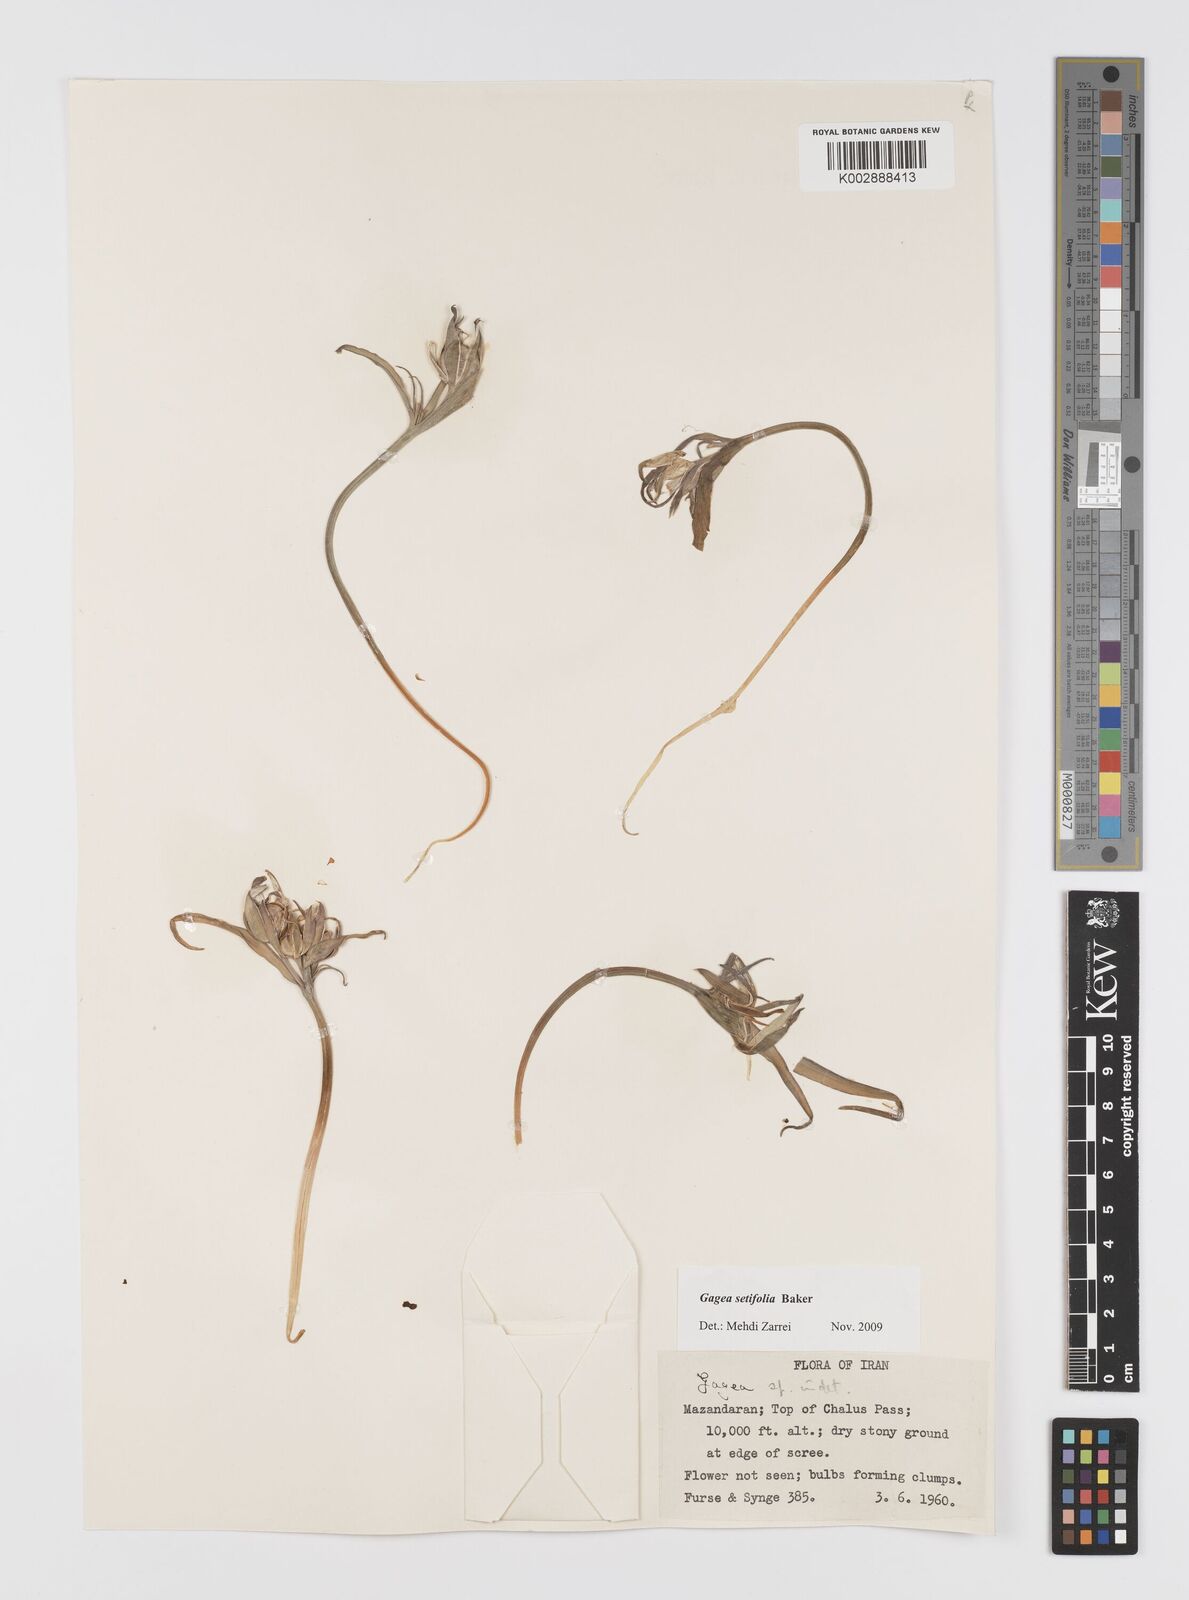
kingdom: Plantae
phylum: Tracheophyta
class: Liliopsida
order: Liliales
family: Liliaceae
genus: Gagea
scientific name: Gagea setifolia
